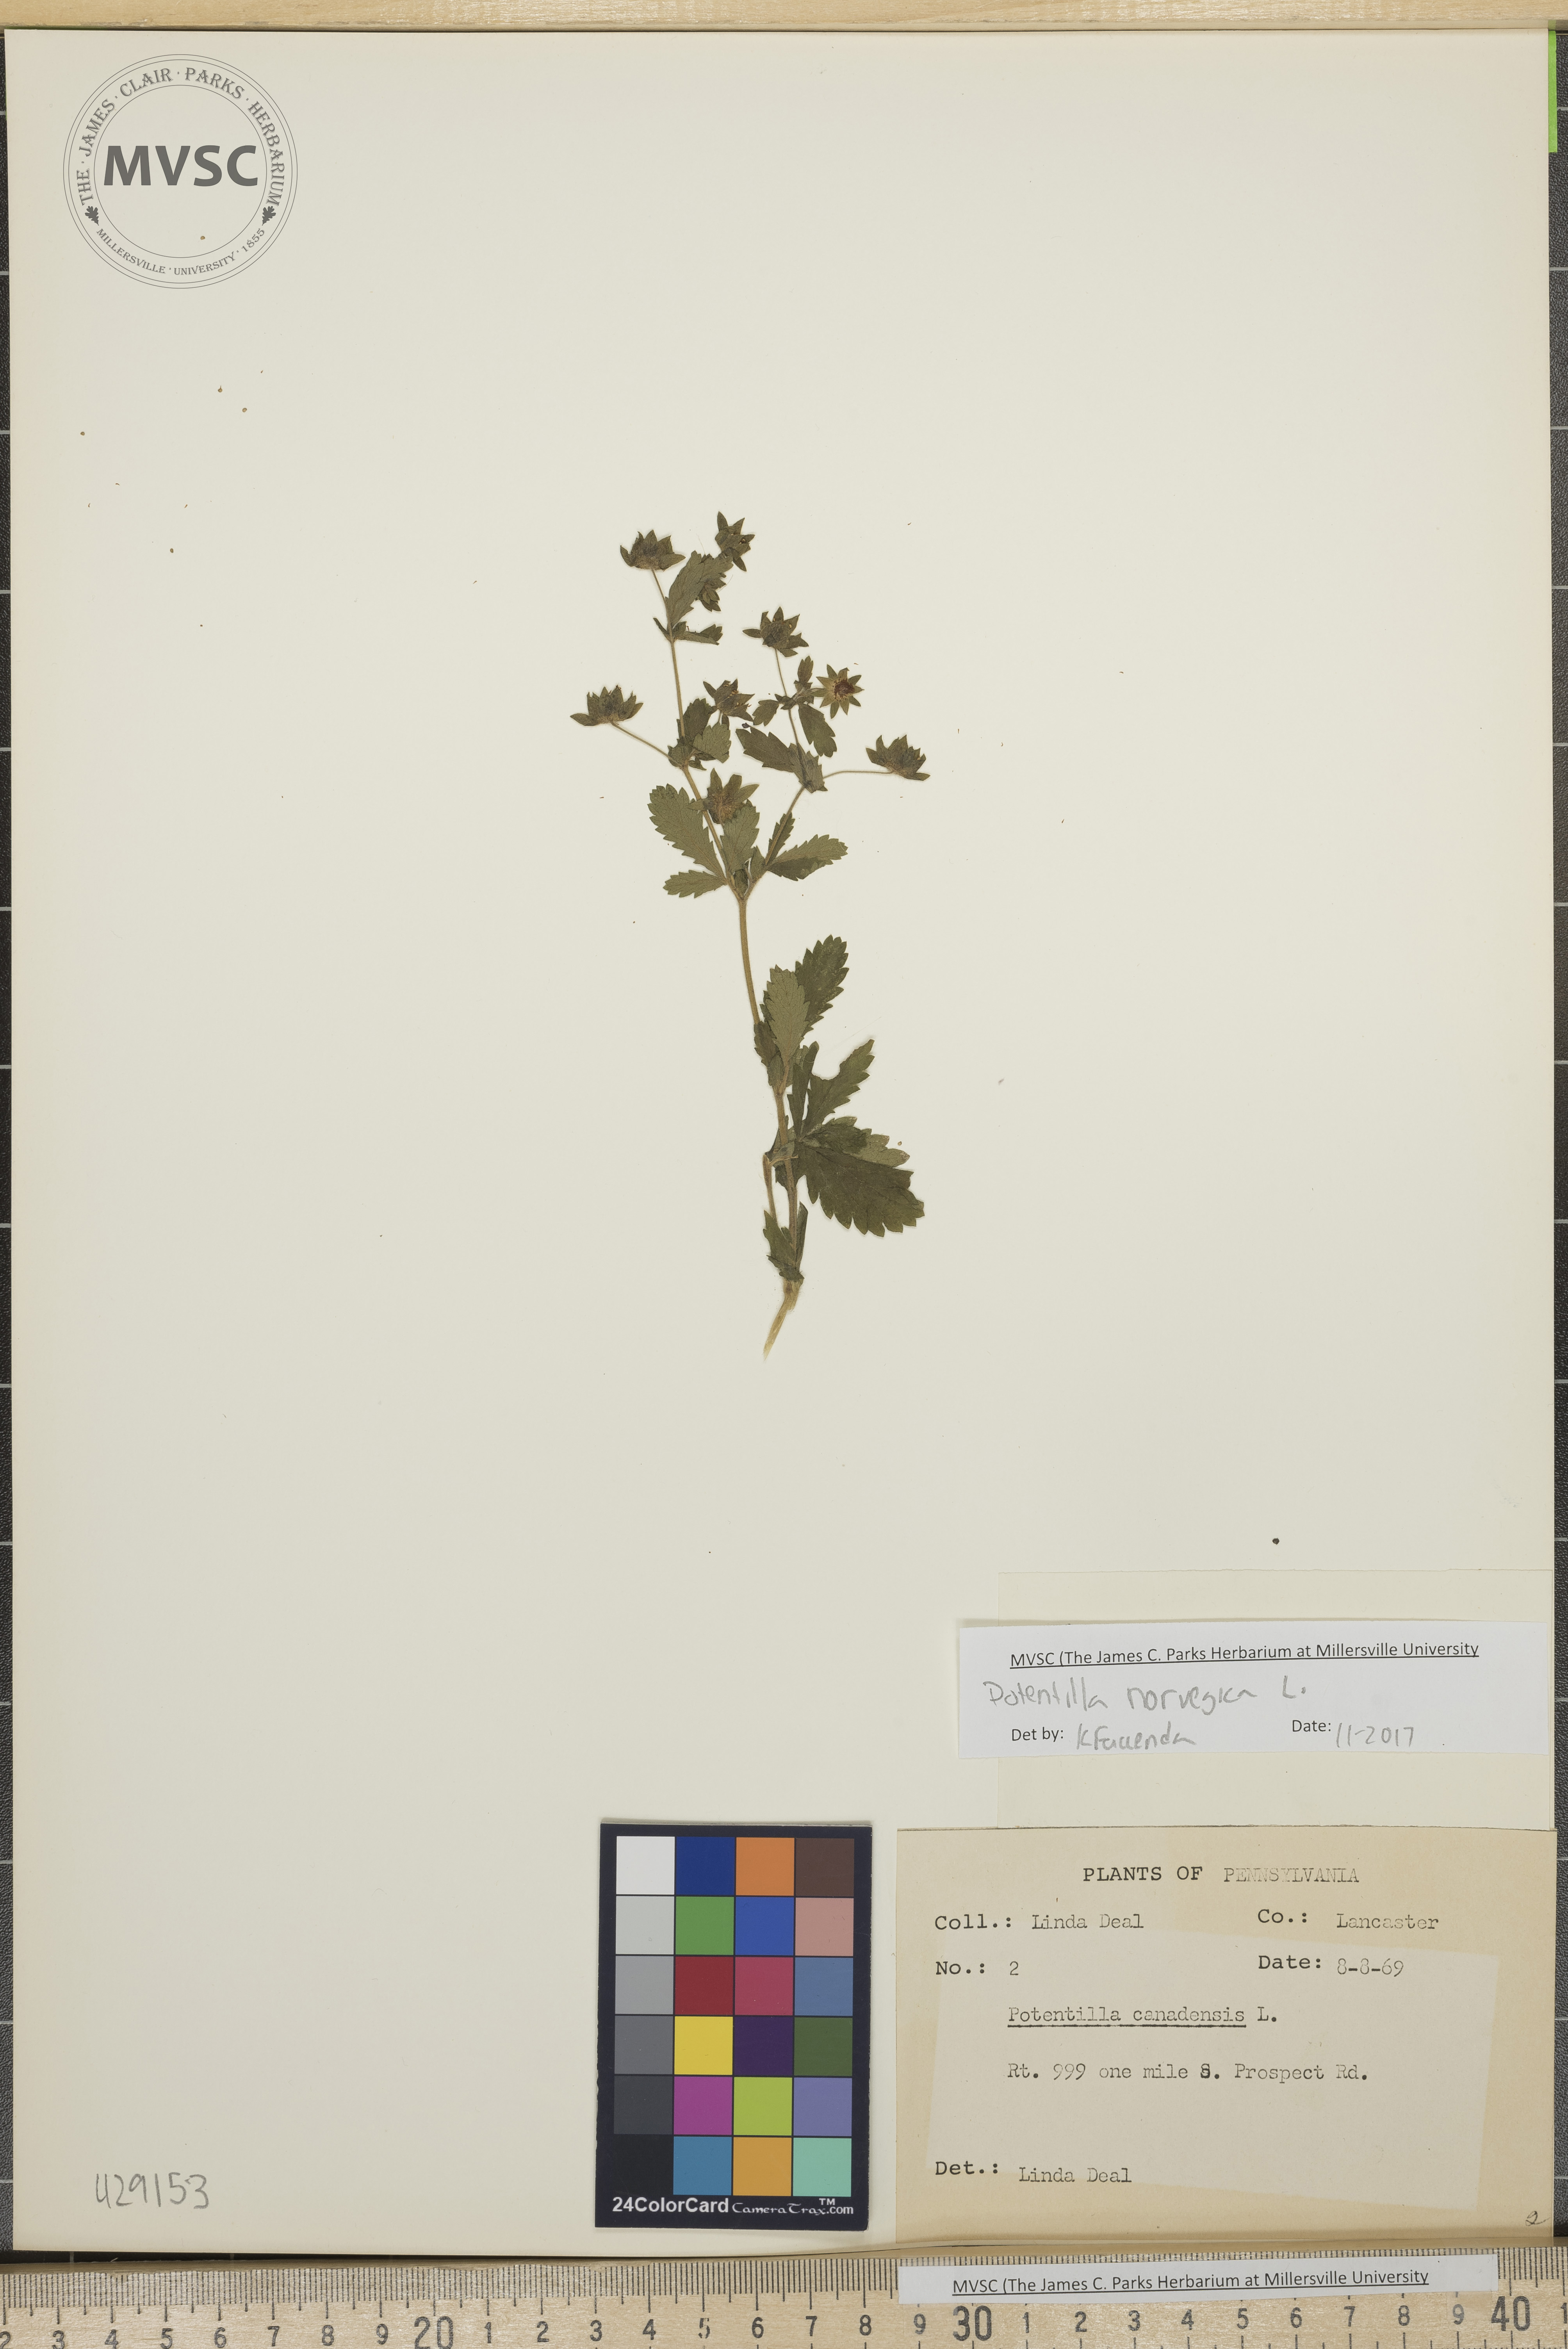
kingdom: Plantae
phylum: Tracheophyta
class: Magnoliopsida
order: Rosales
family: Rosaceae
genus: Potentilla
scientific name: Potentilla norvegica
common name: Ternate-leaved cinquefoil
